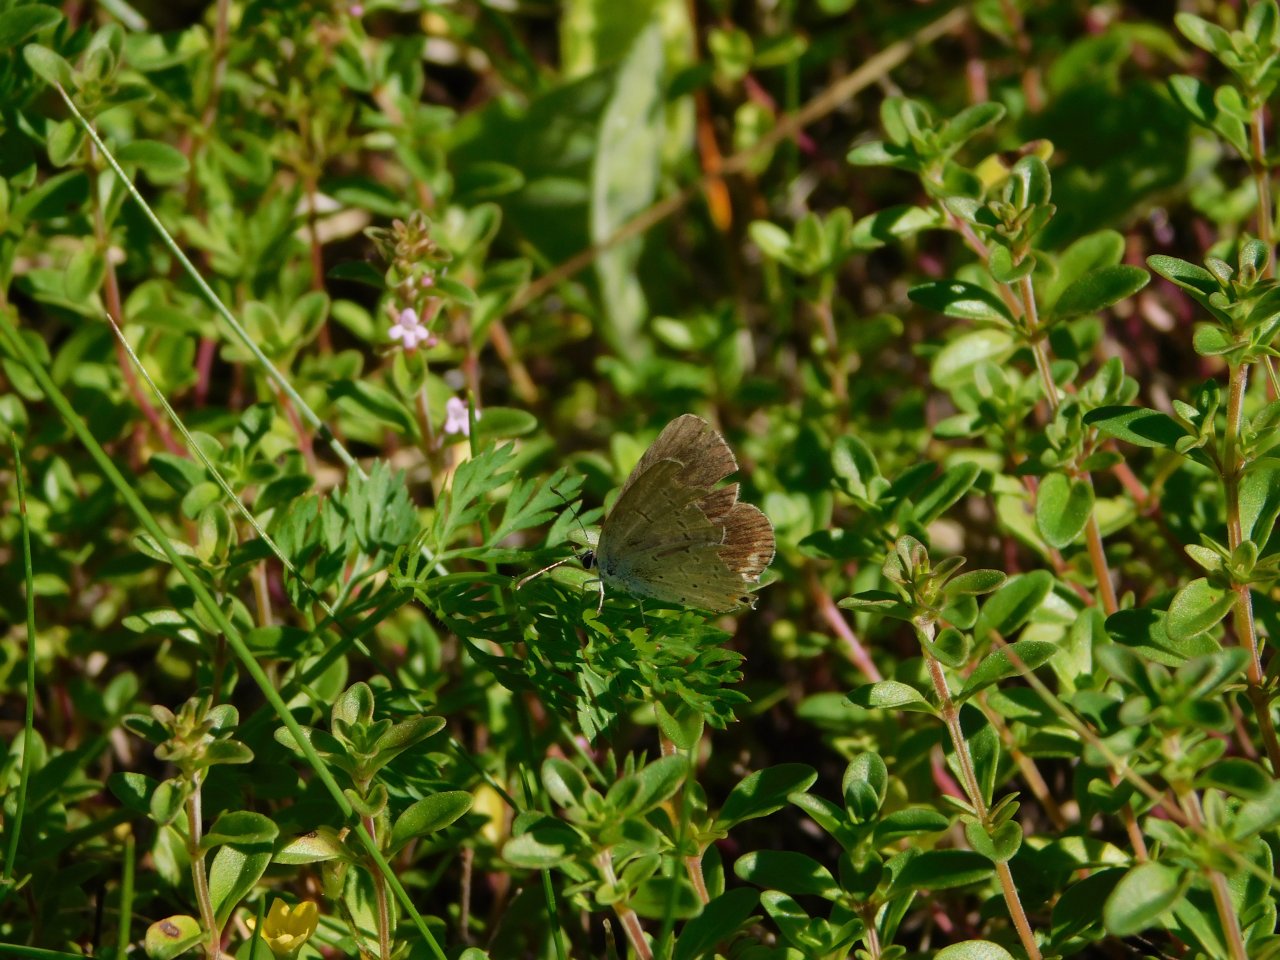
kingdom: Animalia
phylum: Arthropoda
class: Insecta
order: Lepidoptera
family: Lycaenidae
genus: Cyaniris
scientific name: Cyaniris neglecta
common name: Summer Azure
